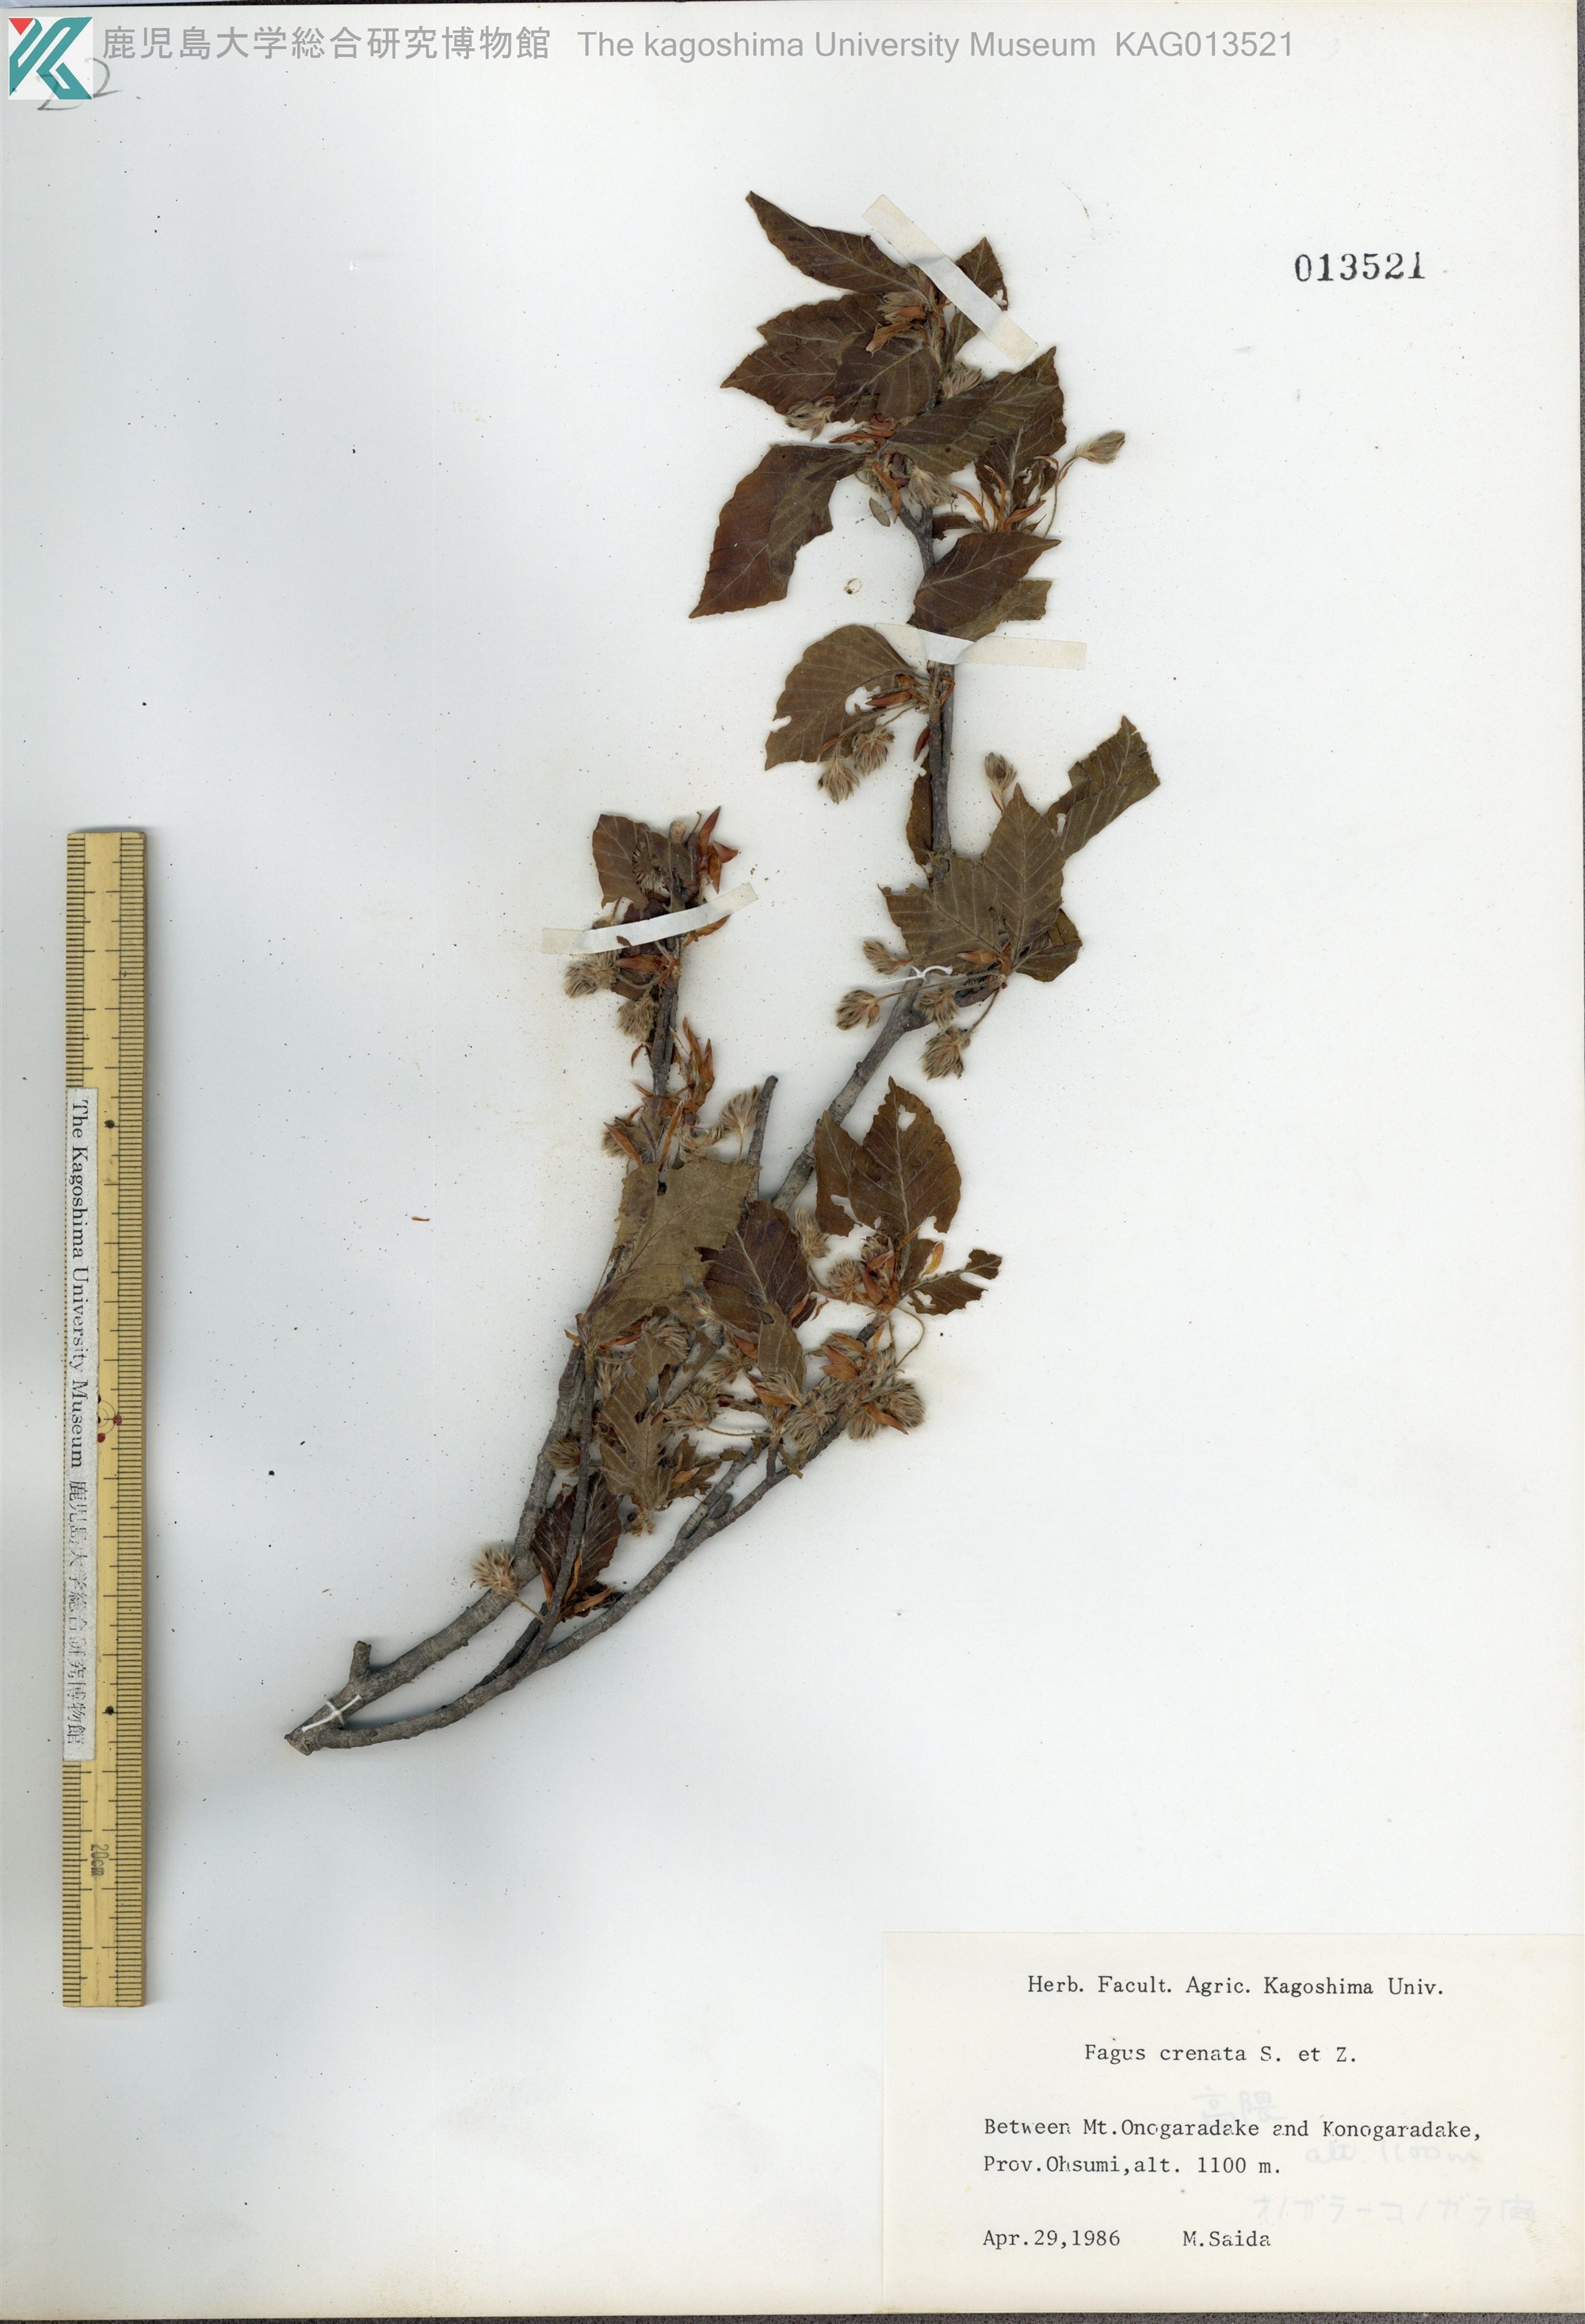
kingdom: Plantae
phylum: Tracheophyta
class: Magnoliopsida
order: Fagales
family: Fagaceae
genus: Fagus
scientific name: Fagus crenata
